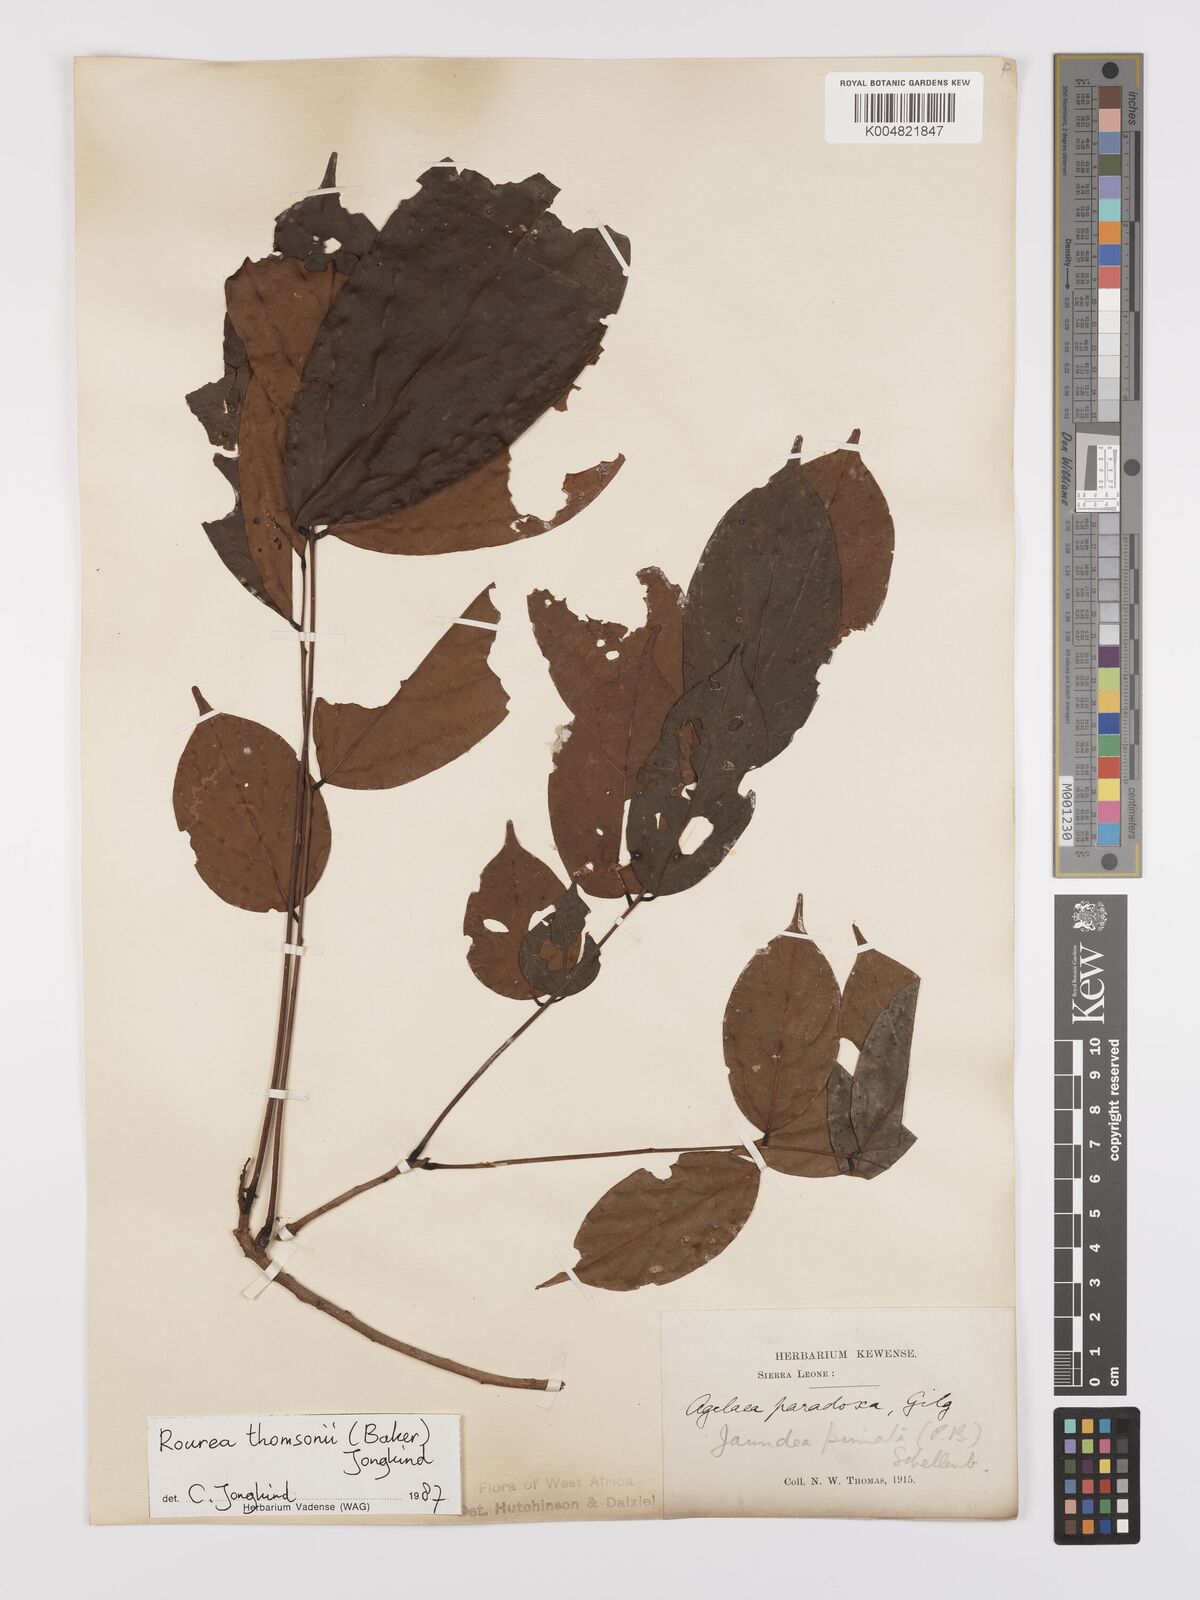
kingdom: Plantae
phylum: Tracheophyta
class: Magnoliopsida
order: Oxalidales
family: Connaraceae
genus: Rourea
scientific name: Rourea pinnata
